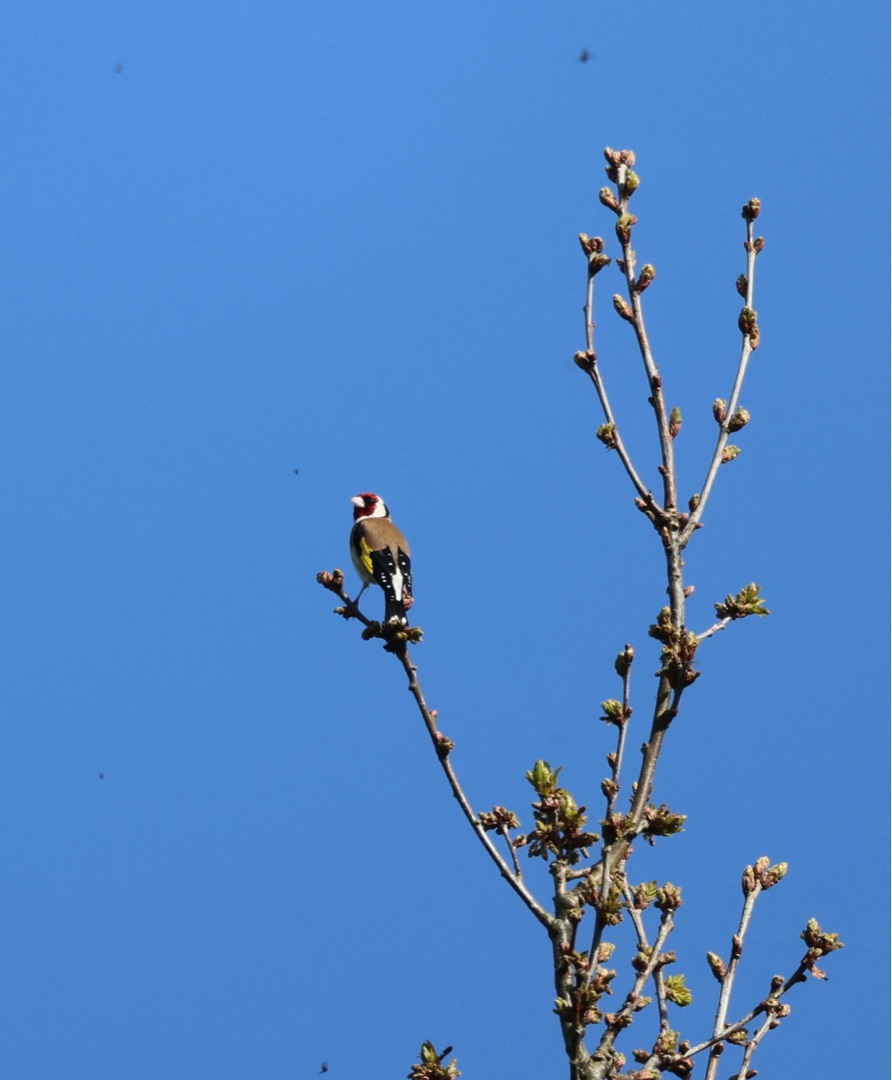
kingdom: Animalia
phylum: Chordata
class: Aves
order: Passeriformes
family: Fringillidae
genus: Carduelis
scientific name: Carduelis carduelis
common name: Stillits
